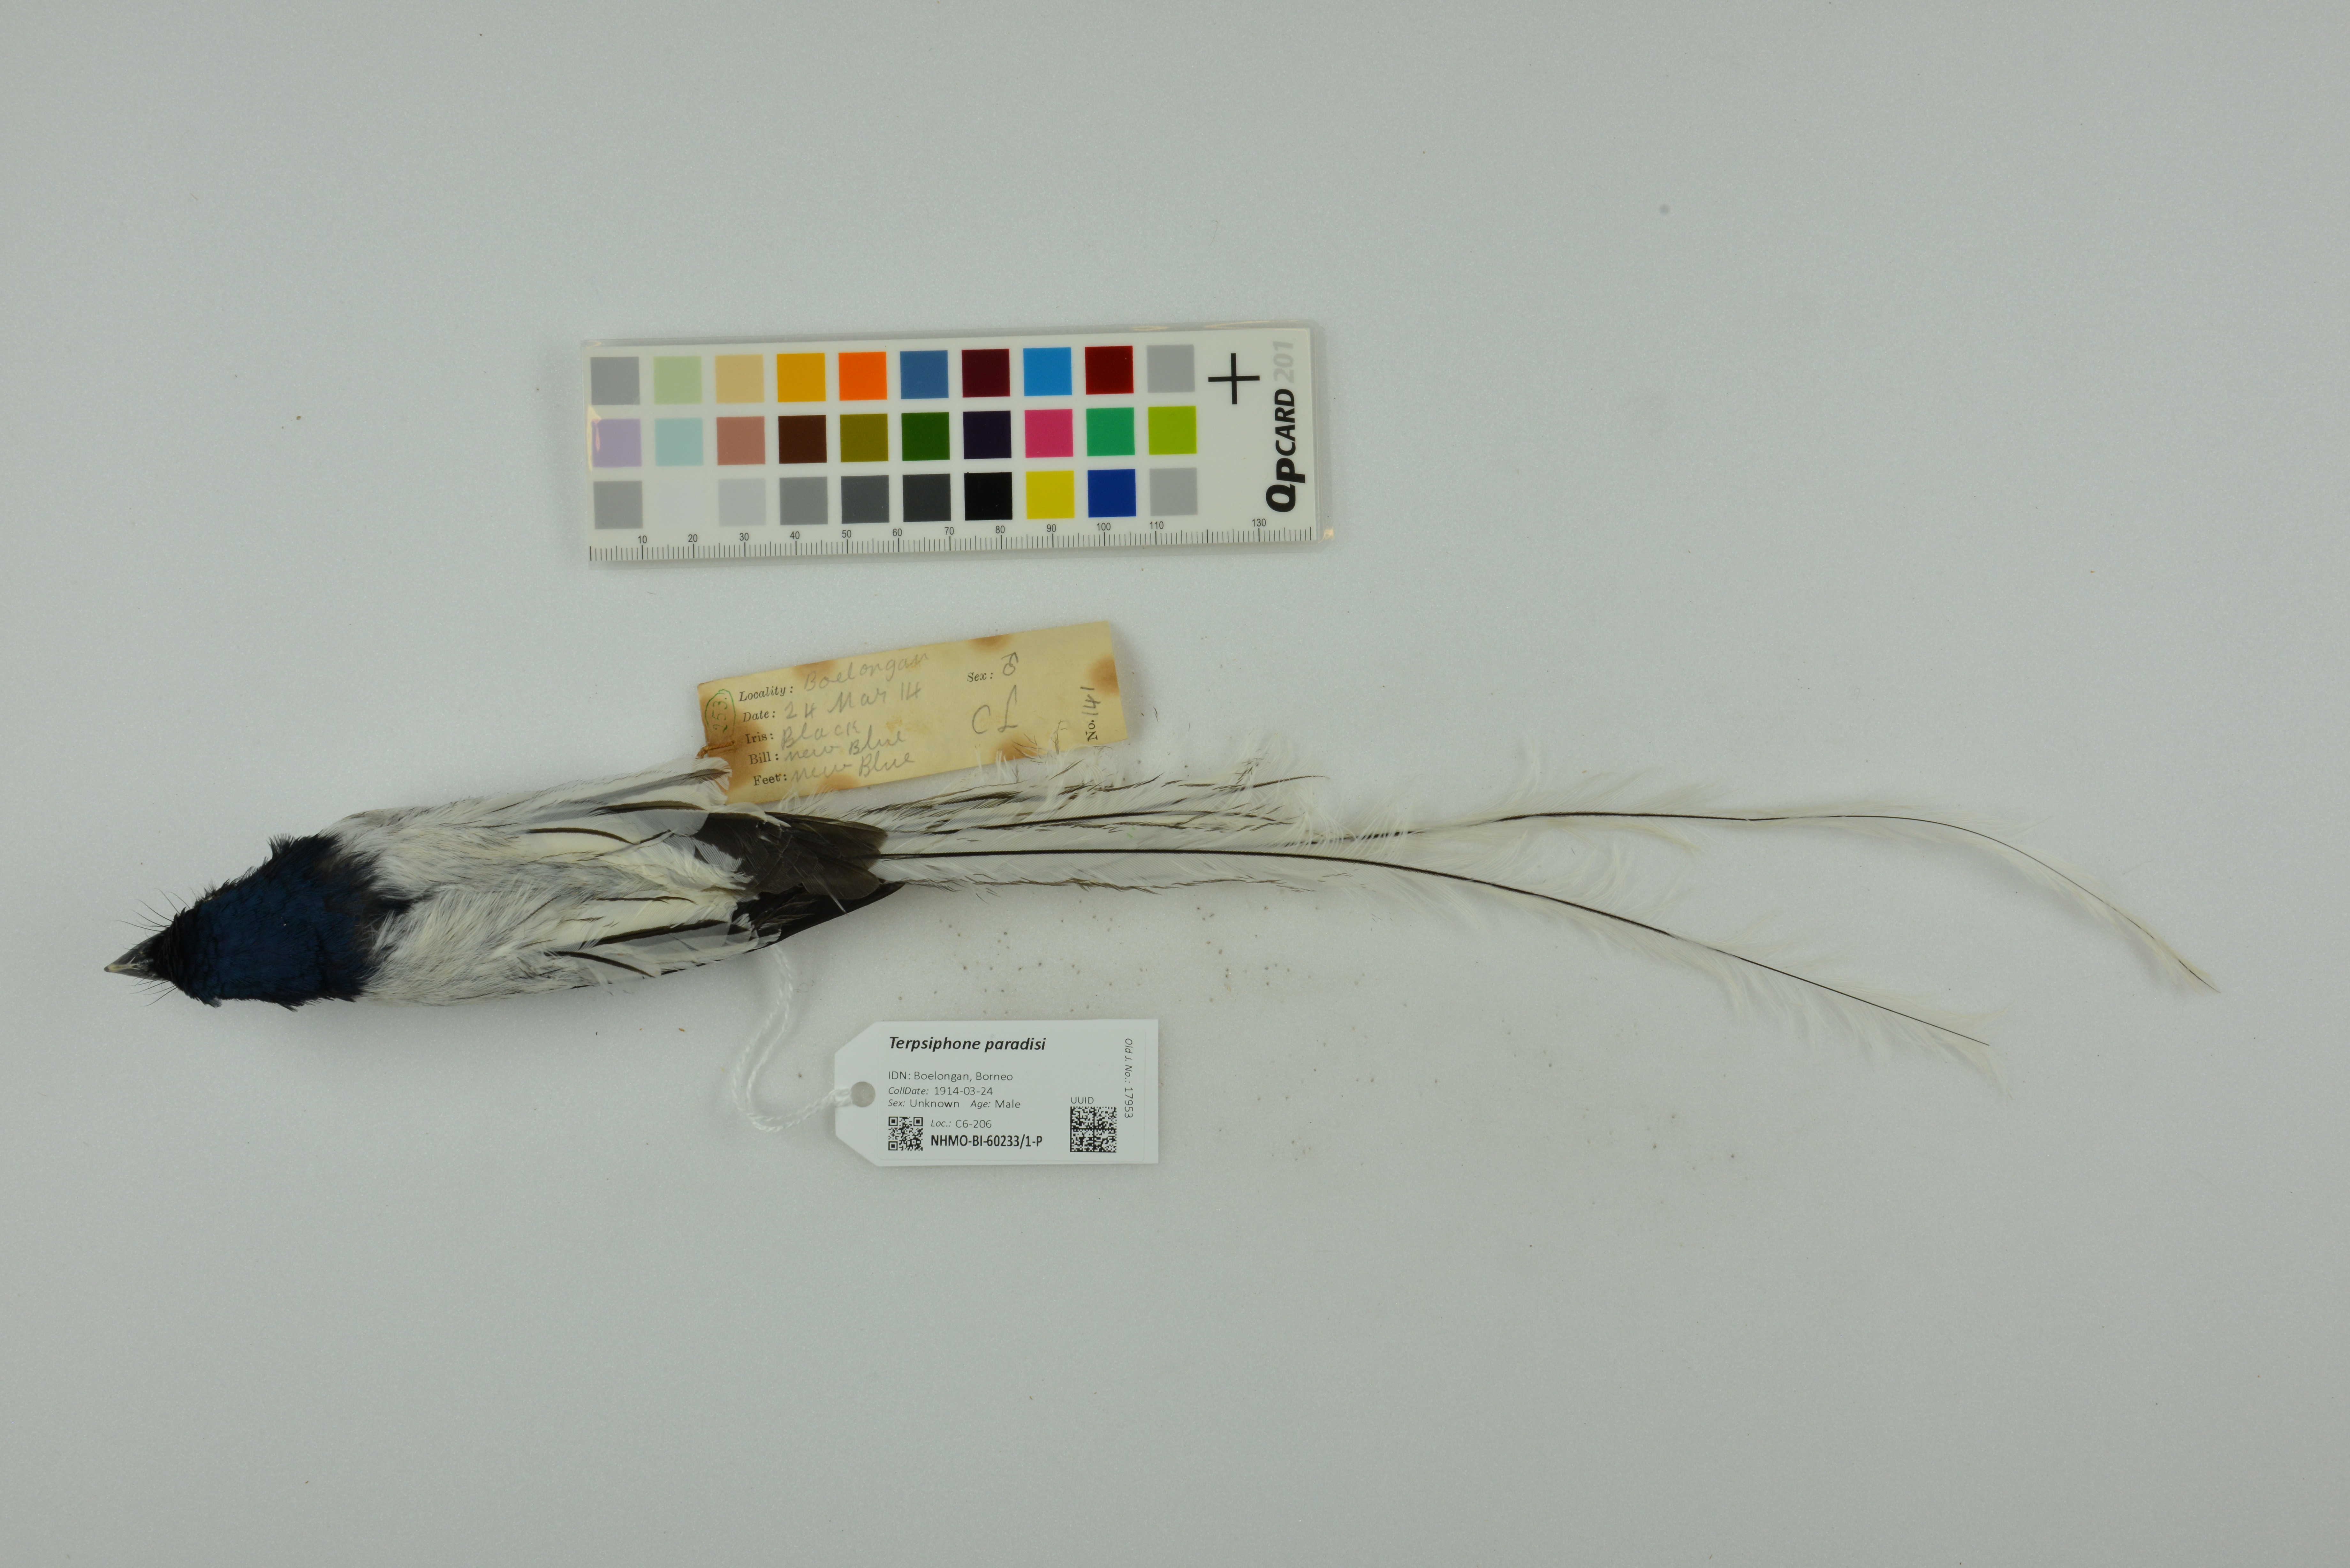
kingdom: Animalia
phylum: Chordata
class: Aves
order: Passeriformes
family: Monarchidae
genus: Terpsiphone
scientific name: Terpsiphone paradisi
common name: Indian paradise flycatcher
